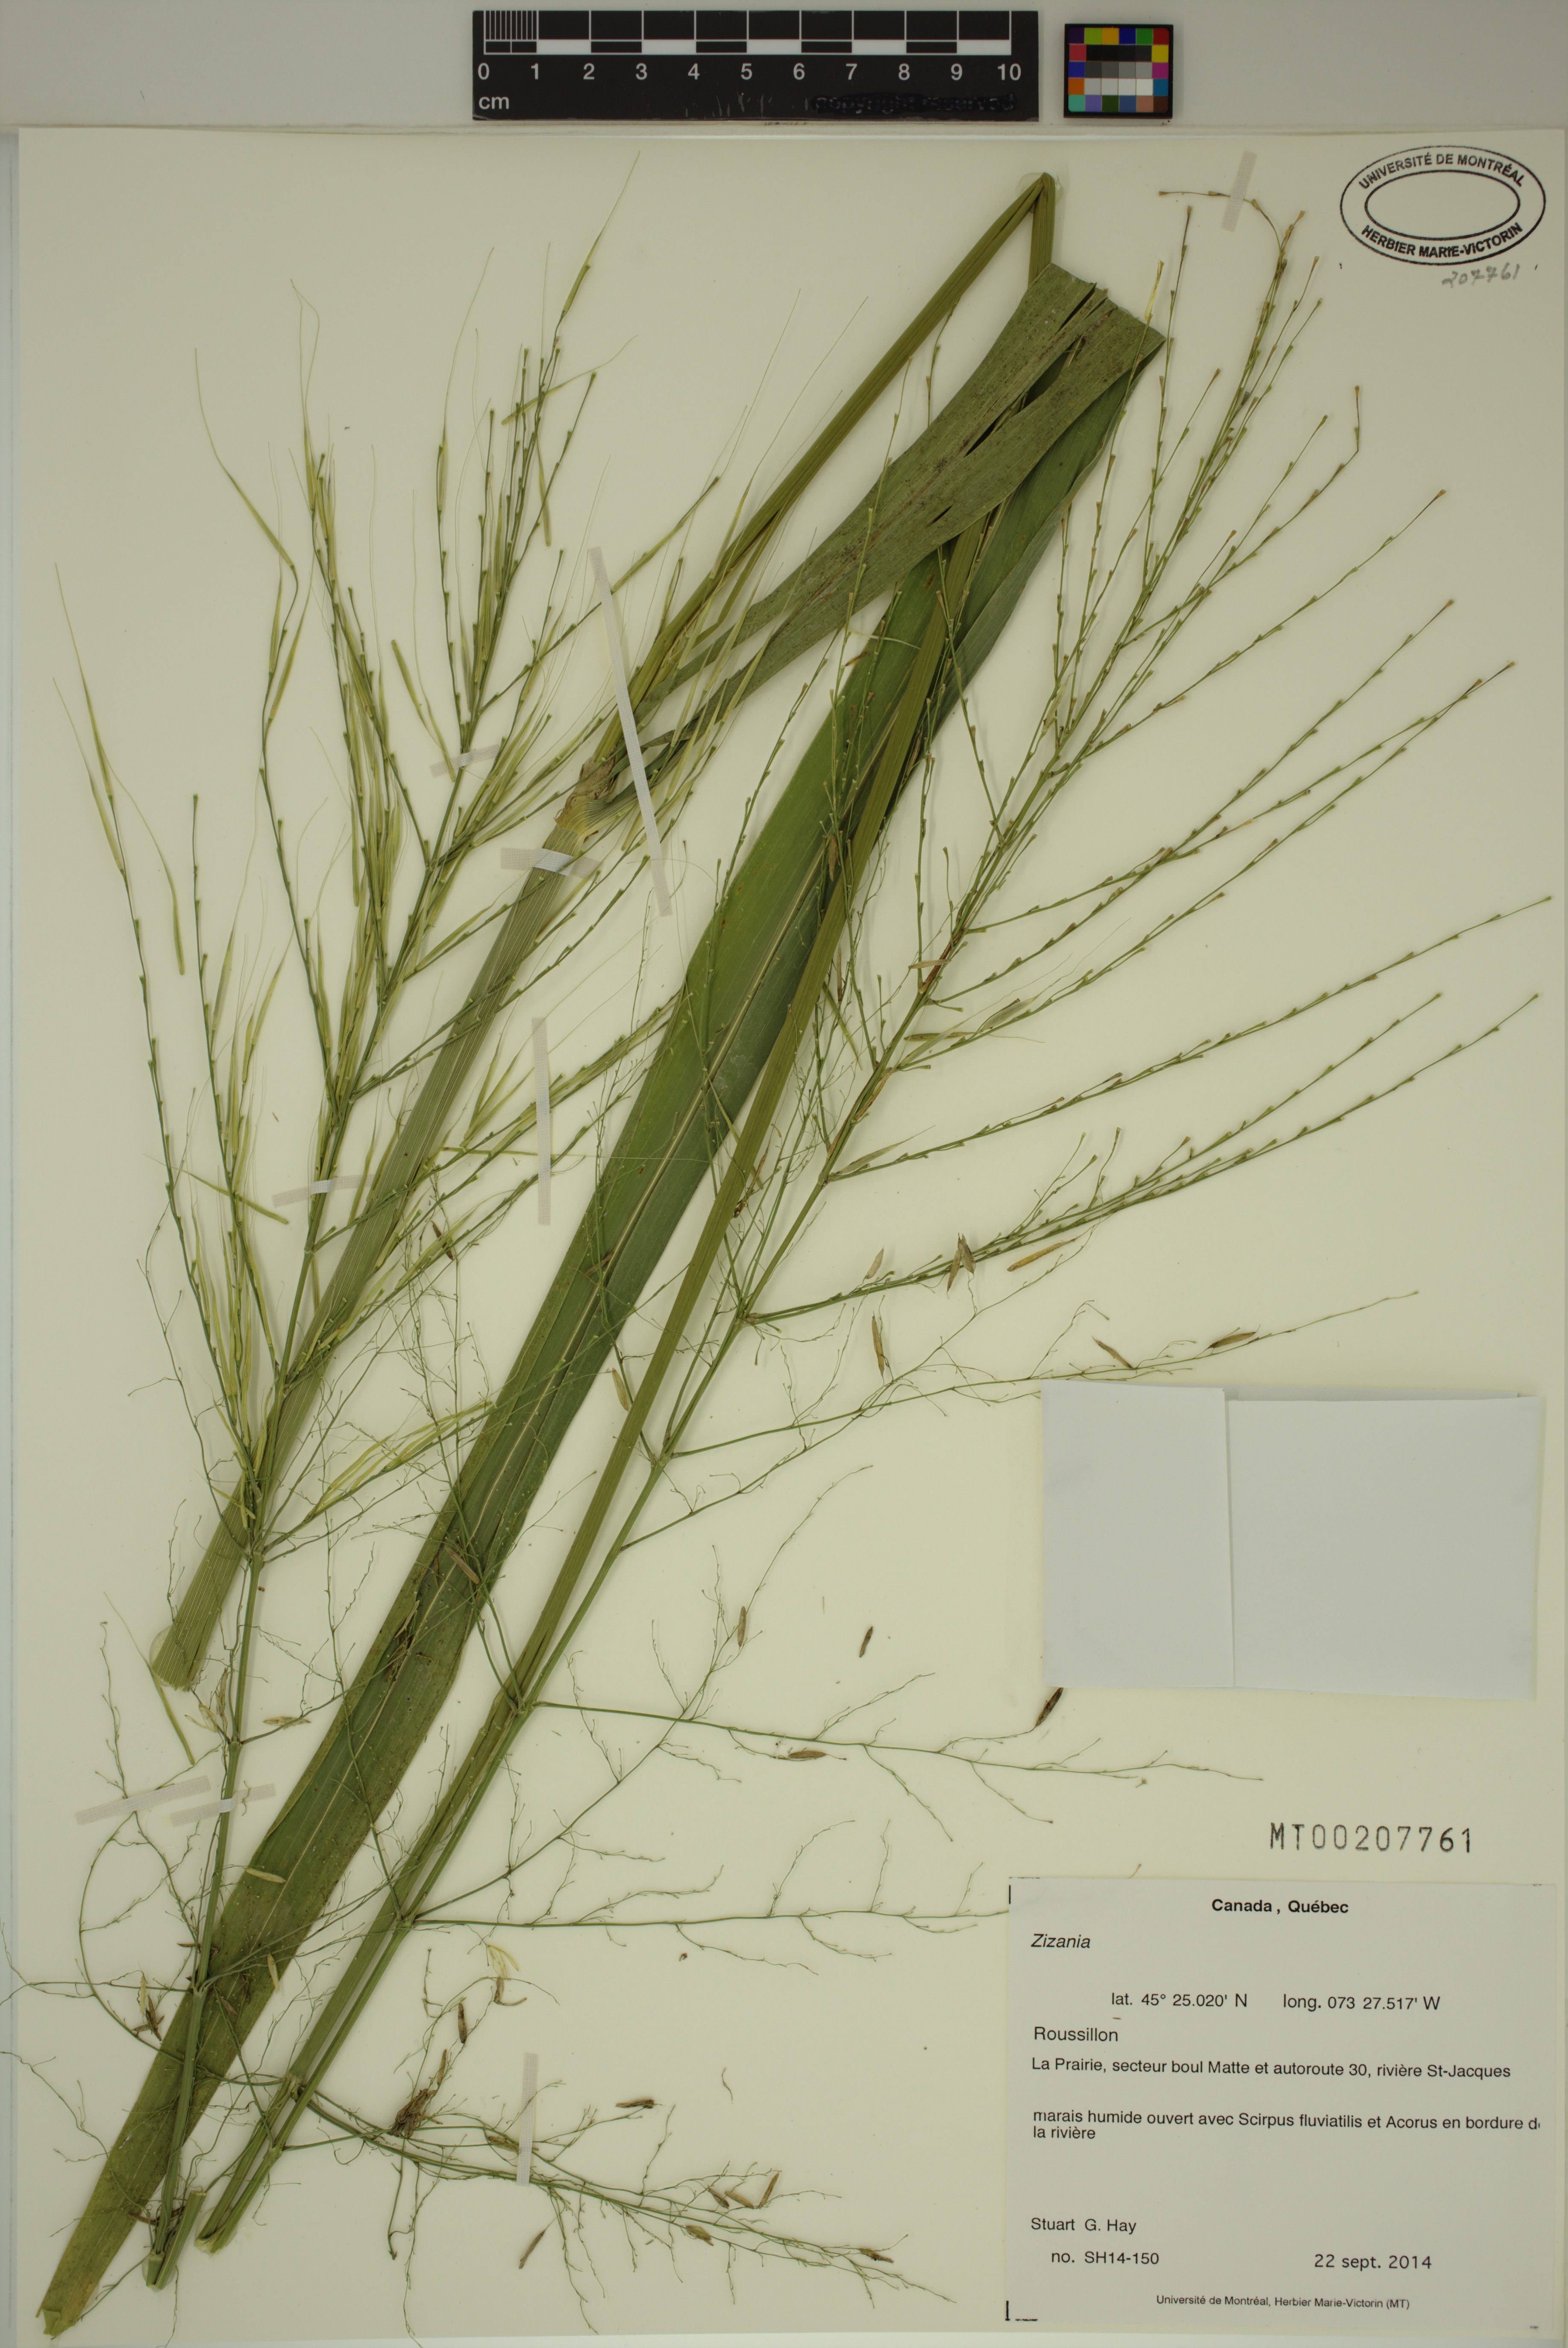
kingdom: Plantae
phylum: Tracheophyta
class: Liliopsida
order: Poales
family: Poaceae
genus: Zizania
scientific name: Zizania
